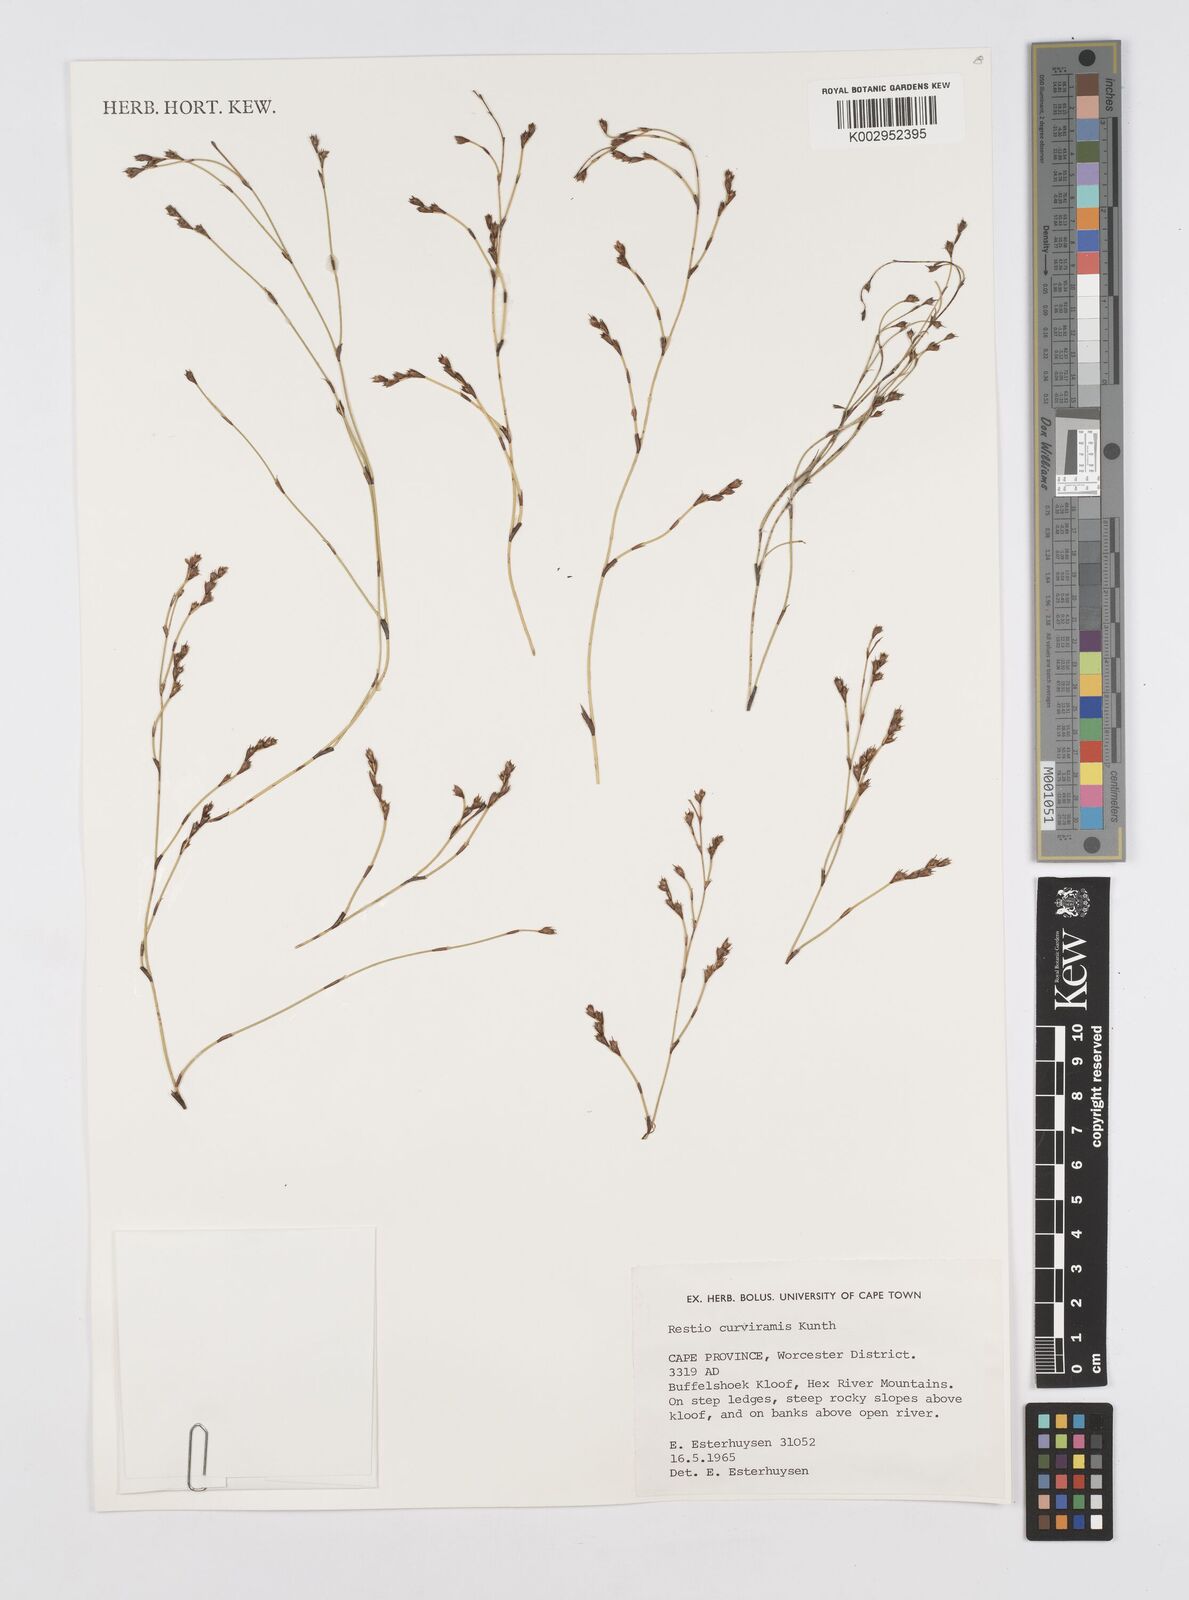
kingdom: Plantae
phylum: Tracheophyta
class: Liliopsida
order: Poales
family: Restionaceae
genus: Restio
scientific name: Restio curviramis
